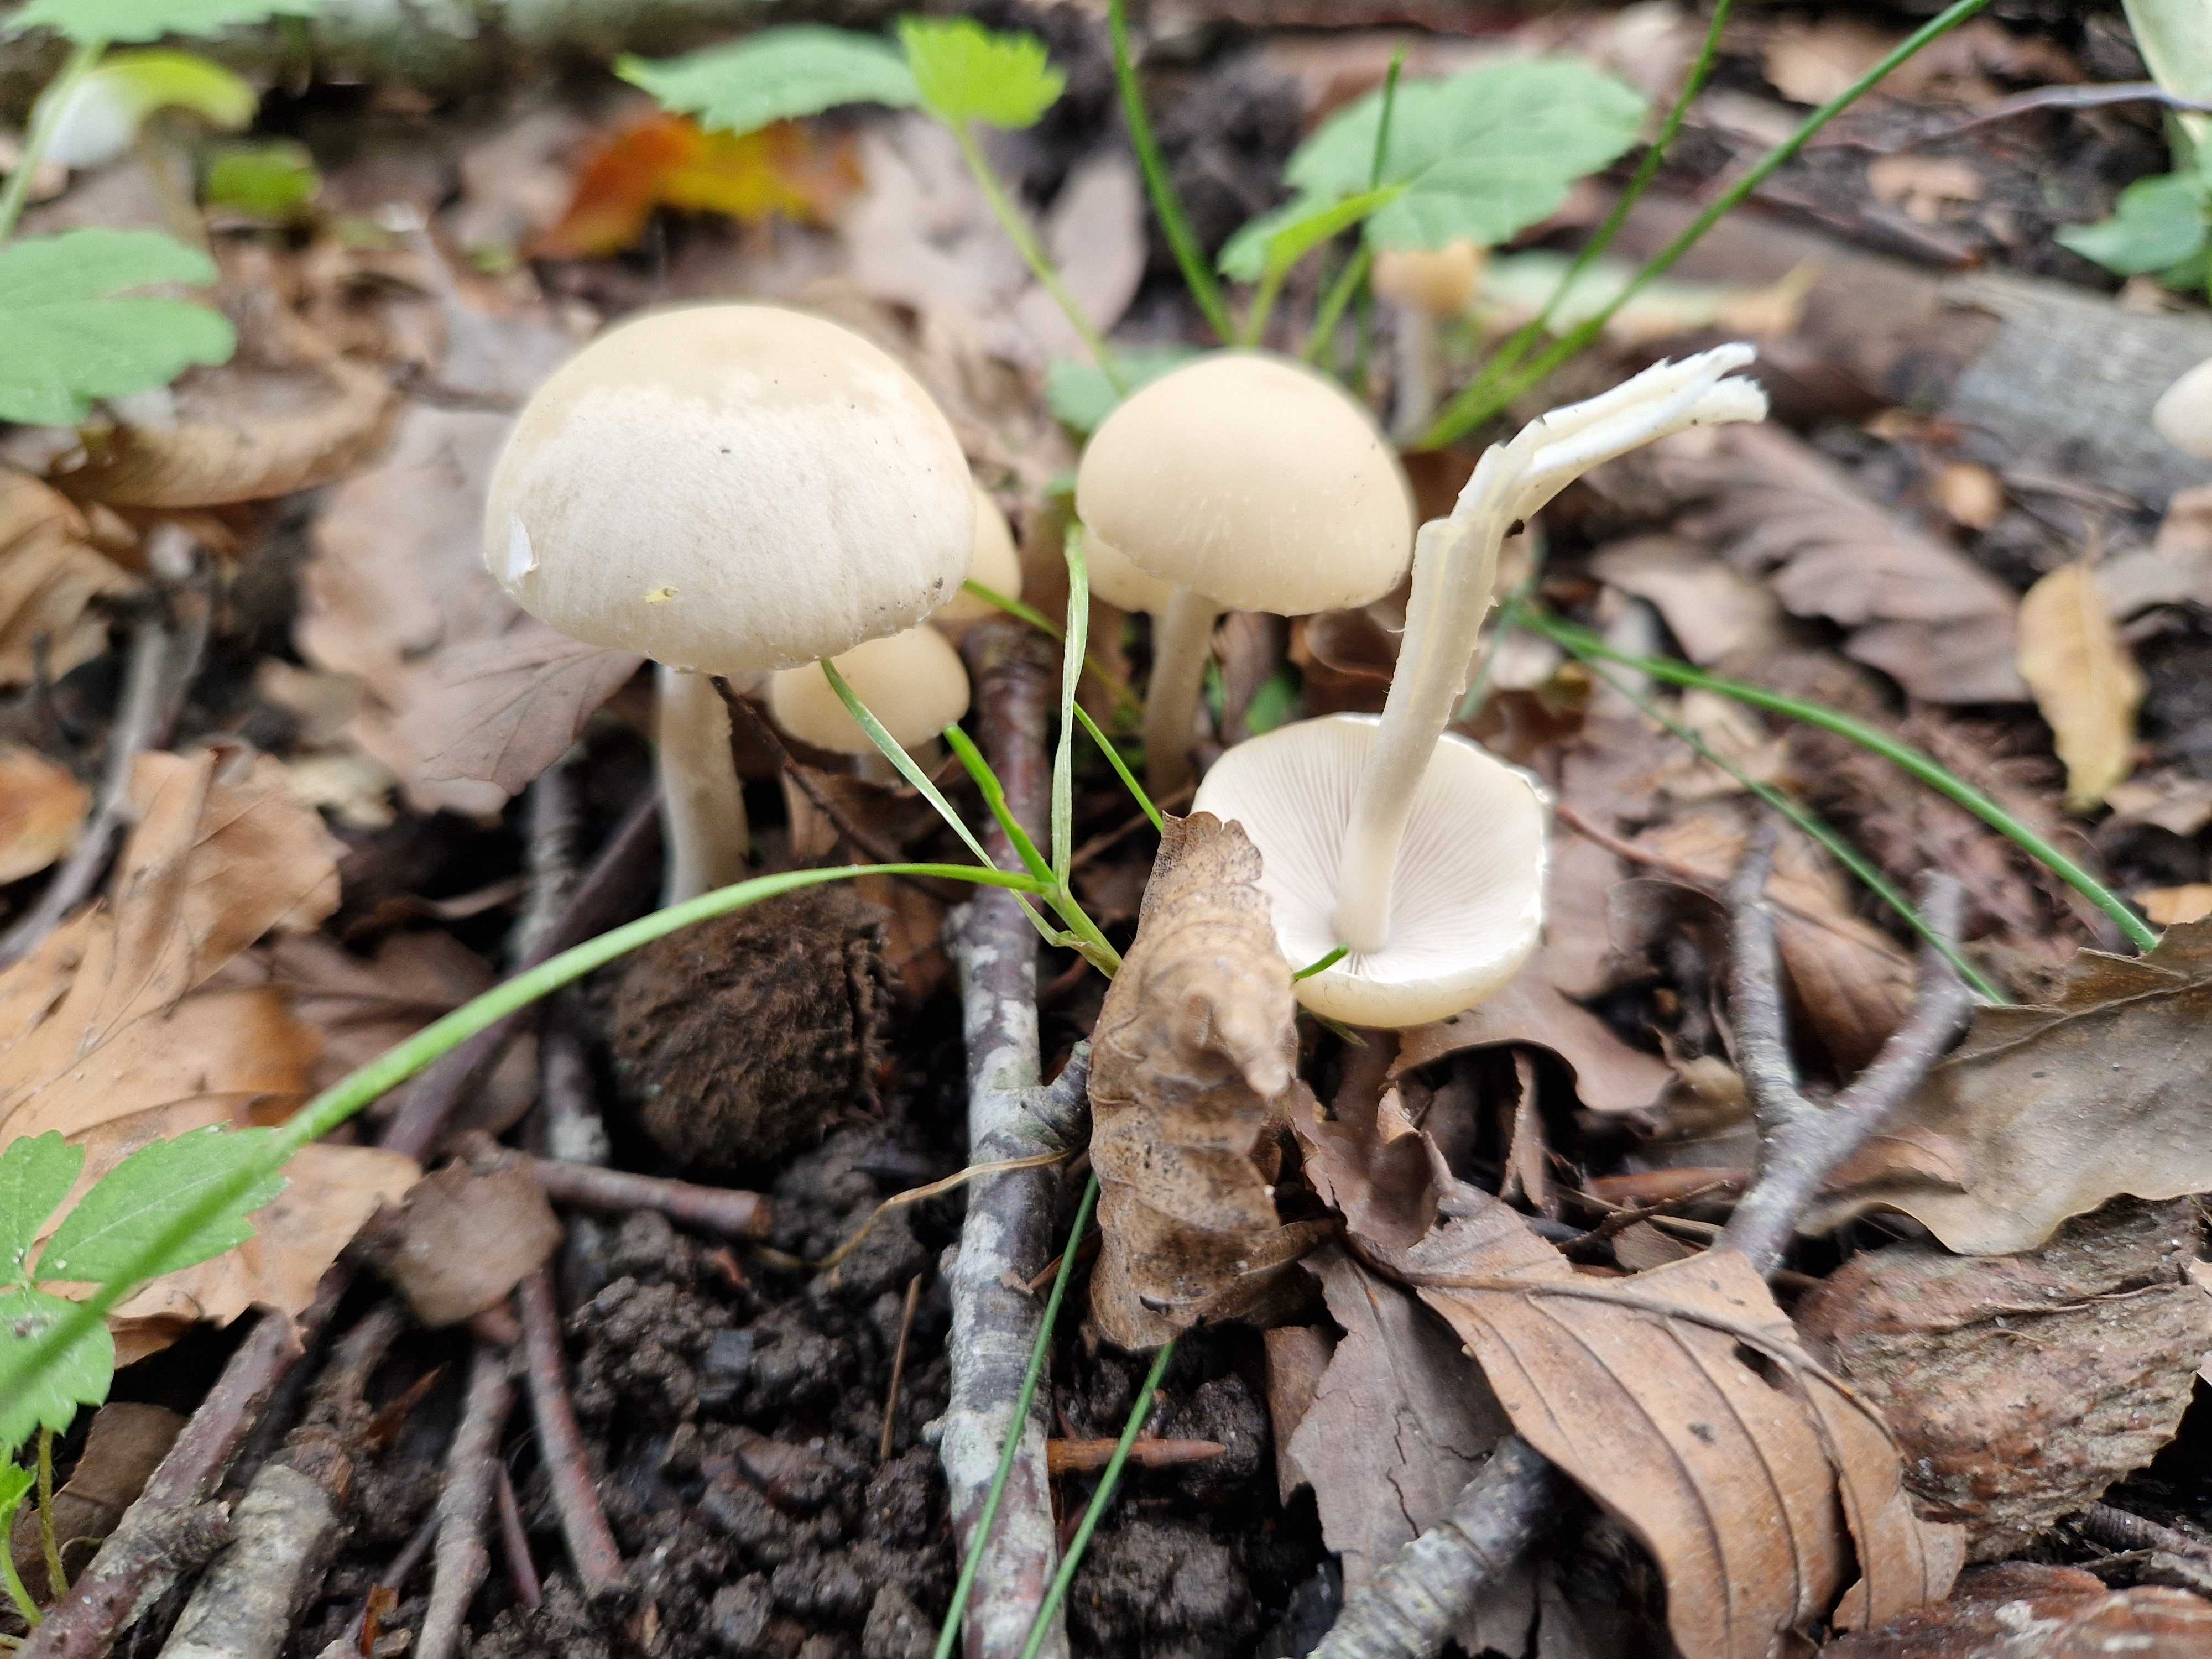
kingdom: Fungi
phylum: Basidiomycota
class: Agaricomycetes
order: Agaricales
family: Psathyrellaceae
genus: Candolleomyces
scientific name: Candolleomyces candolleanus
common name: Candolles mørkhat
